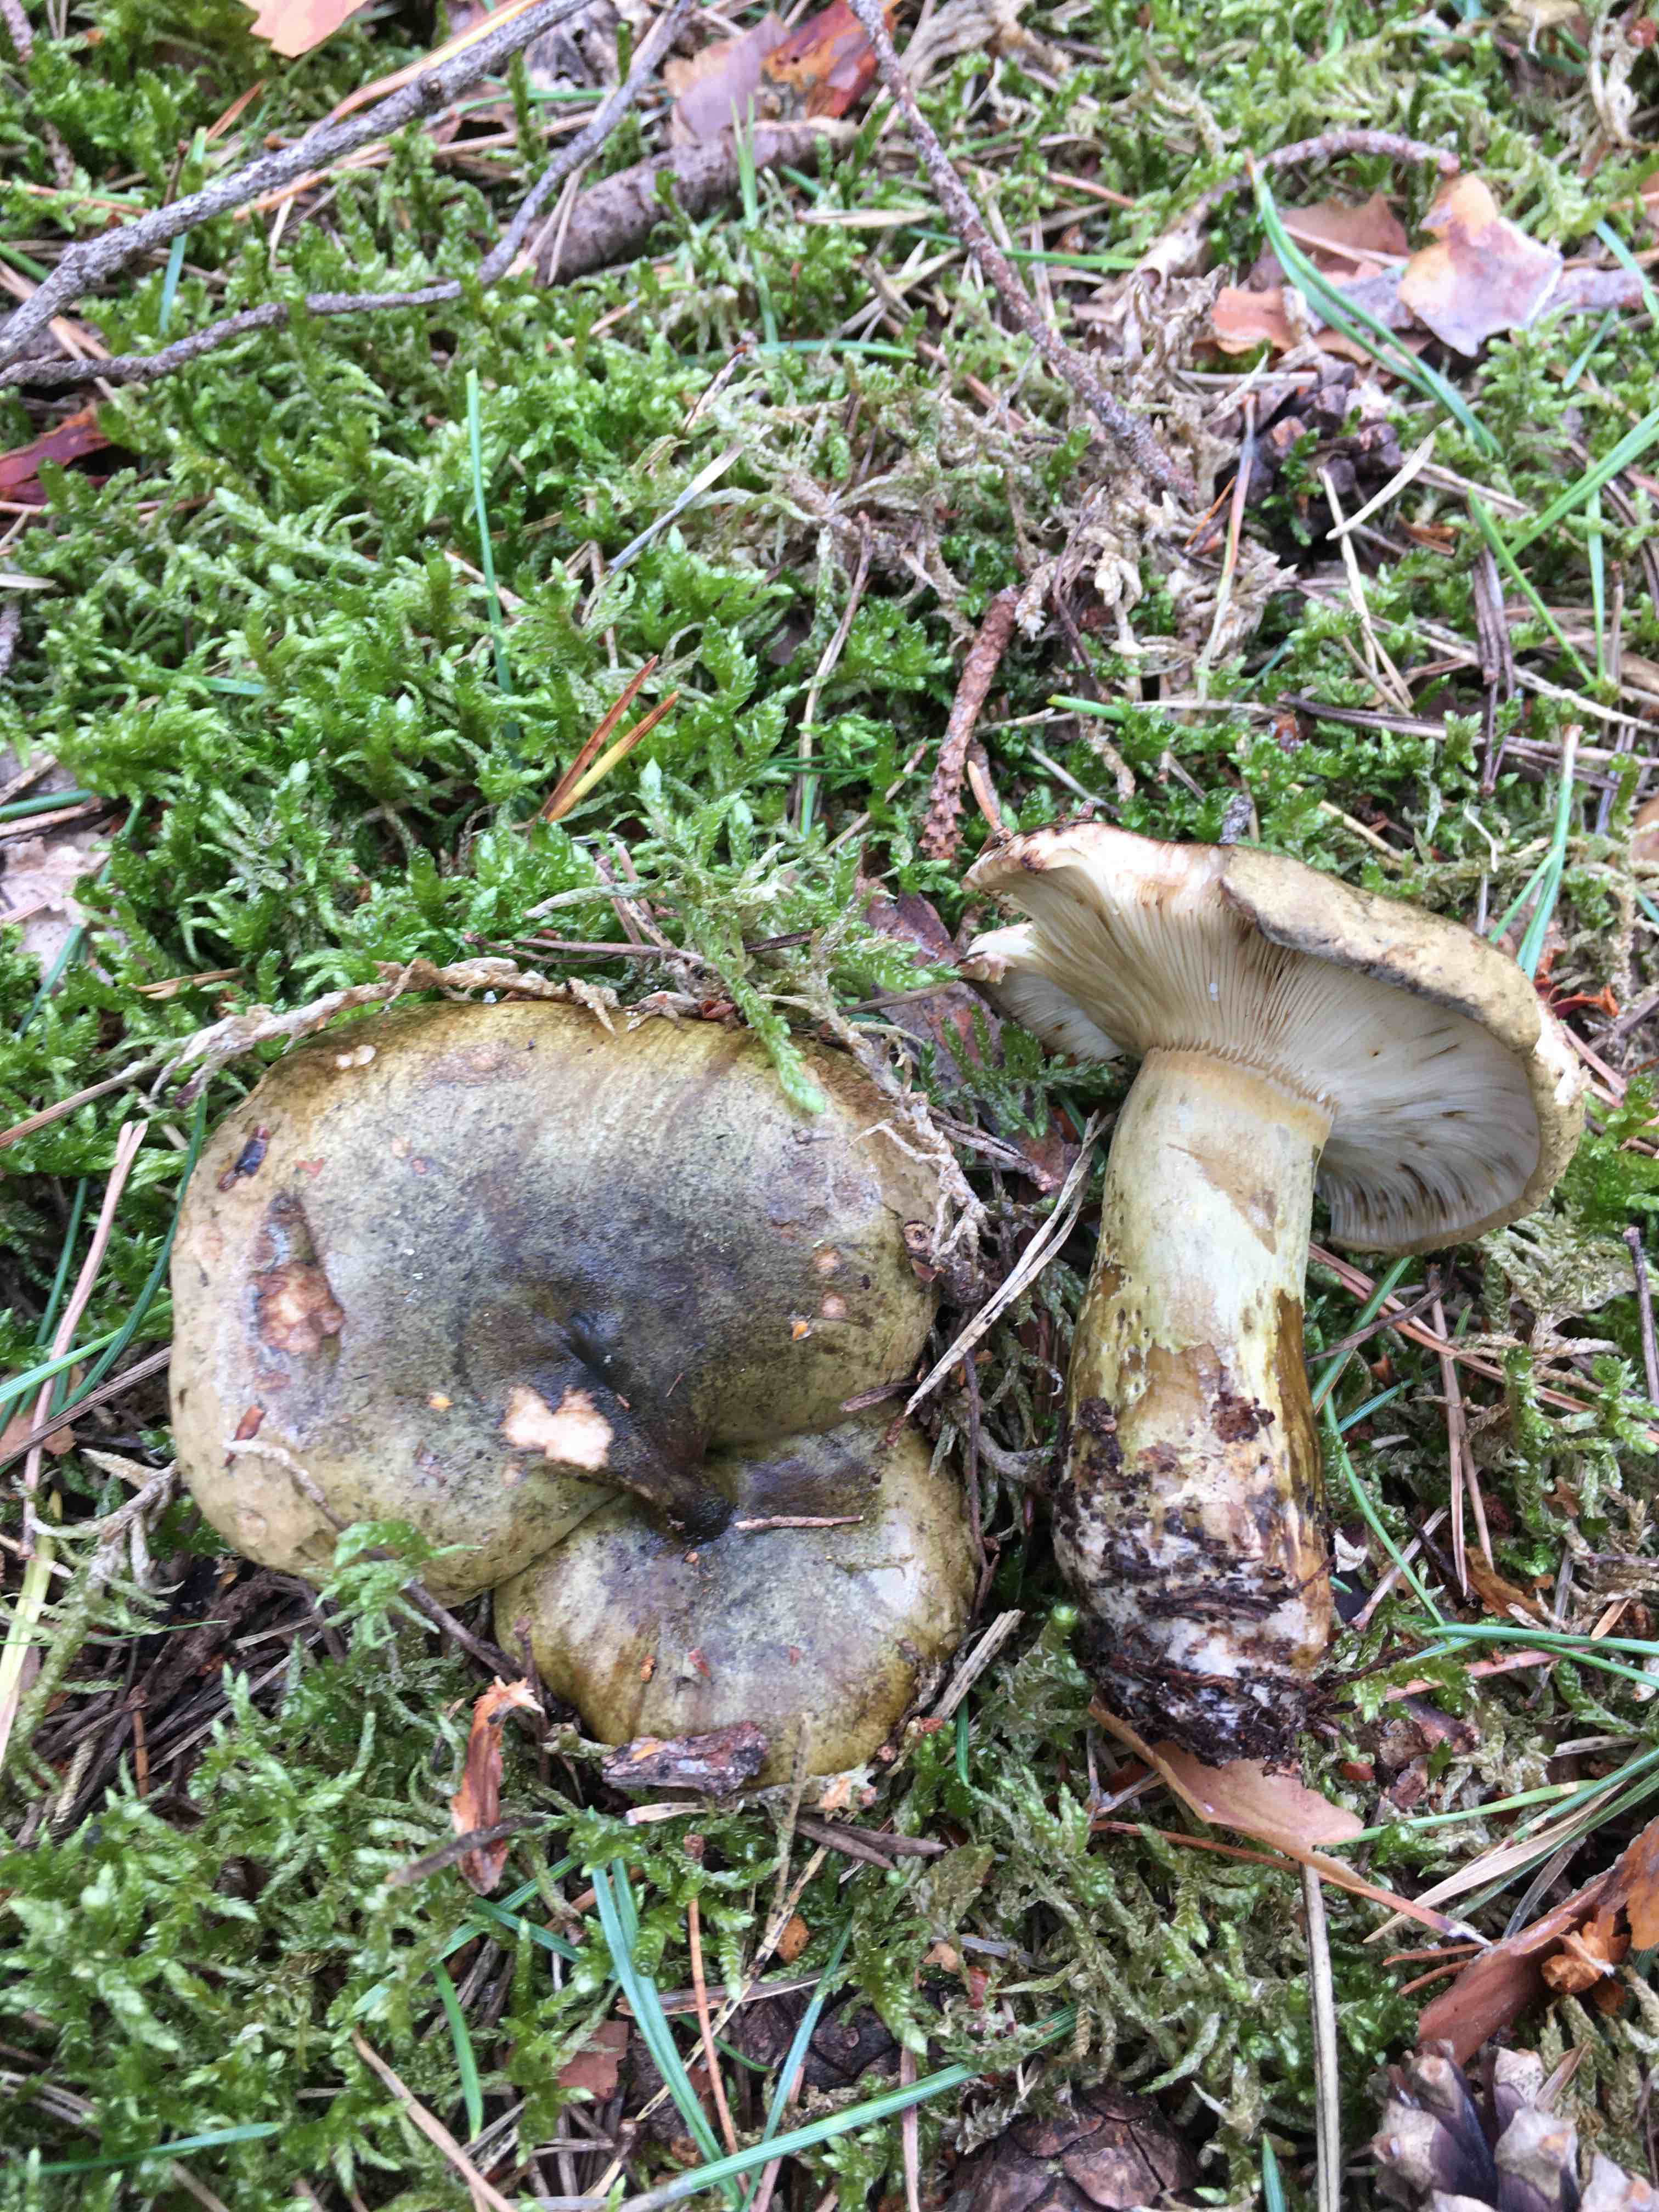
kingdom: Fungi
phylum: Basidiomycota
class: Agaricomycetes
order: Russulales
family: Russulaceae
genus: Lactarius
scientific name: Lactarius necator
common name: manddraber-mælkehat
